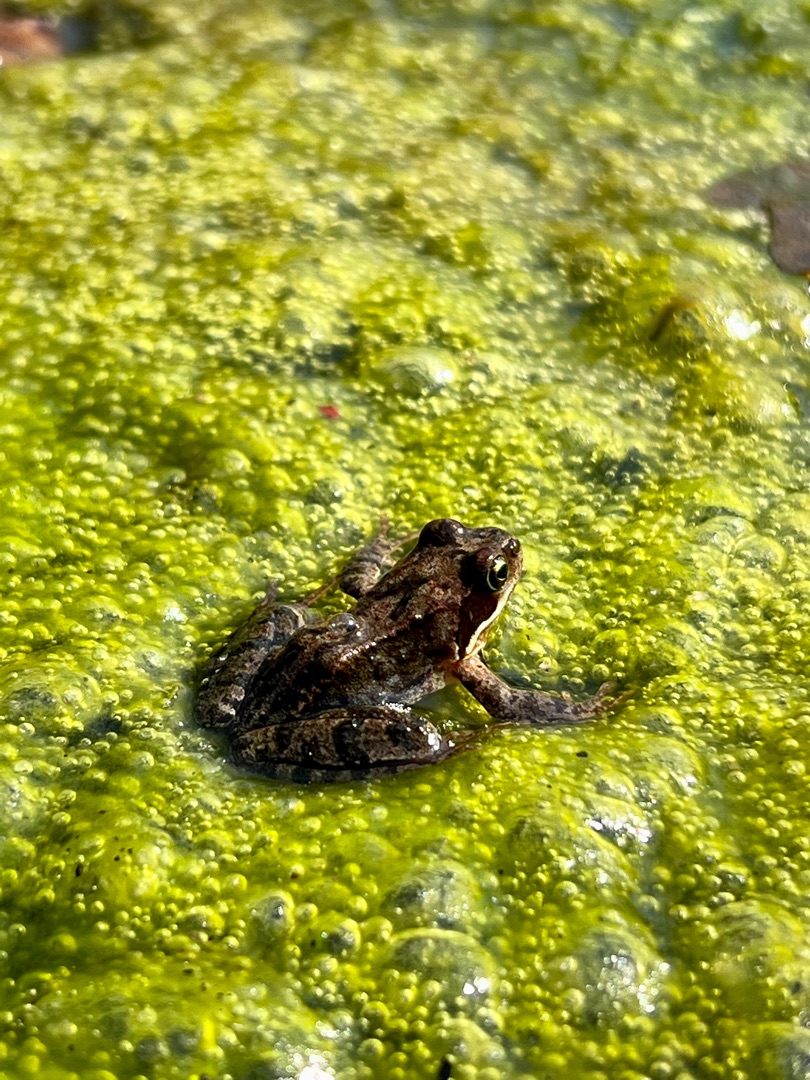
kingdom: Animalia
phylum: Chordata
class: Amphibia
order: Anura
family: Ranidae
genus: Rana
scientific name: Rana temporaria
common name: Butsnudet frø
